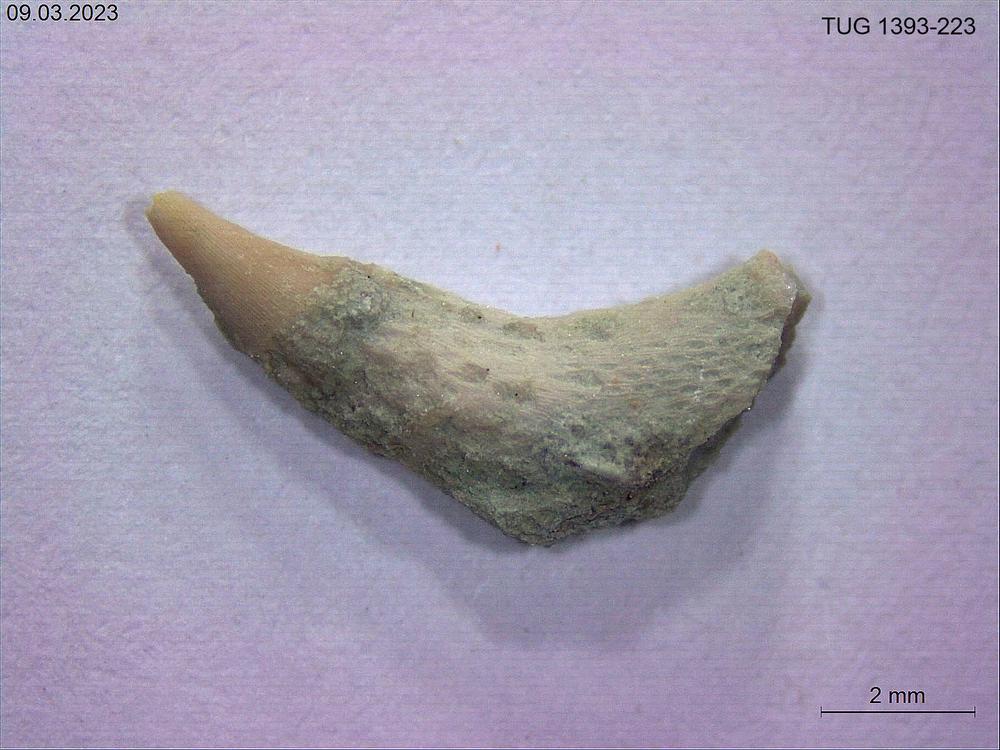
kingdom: Animalia
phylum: Bryozoa
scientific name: Bryozoa
